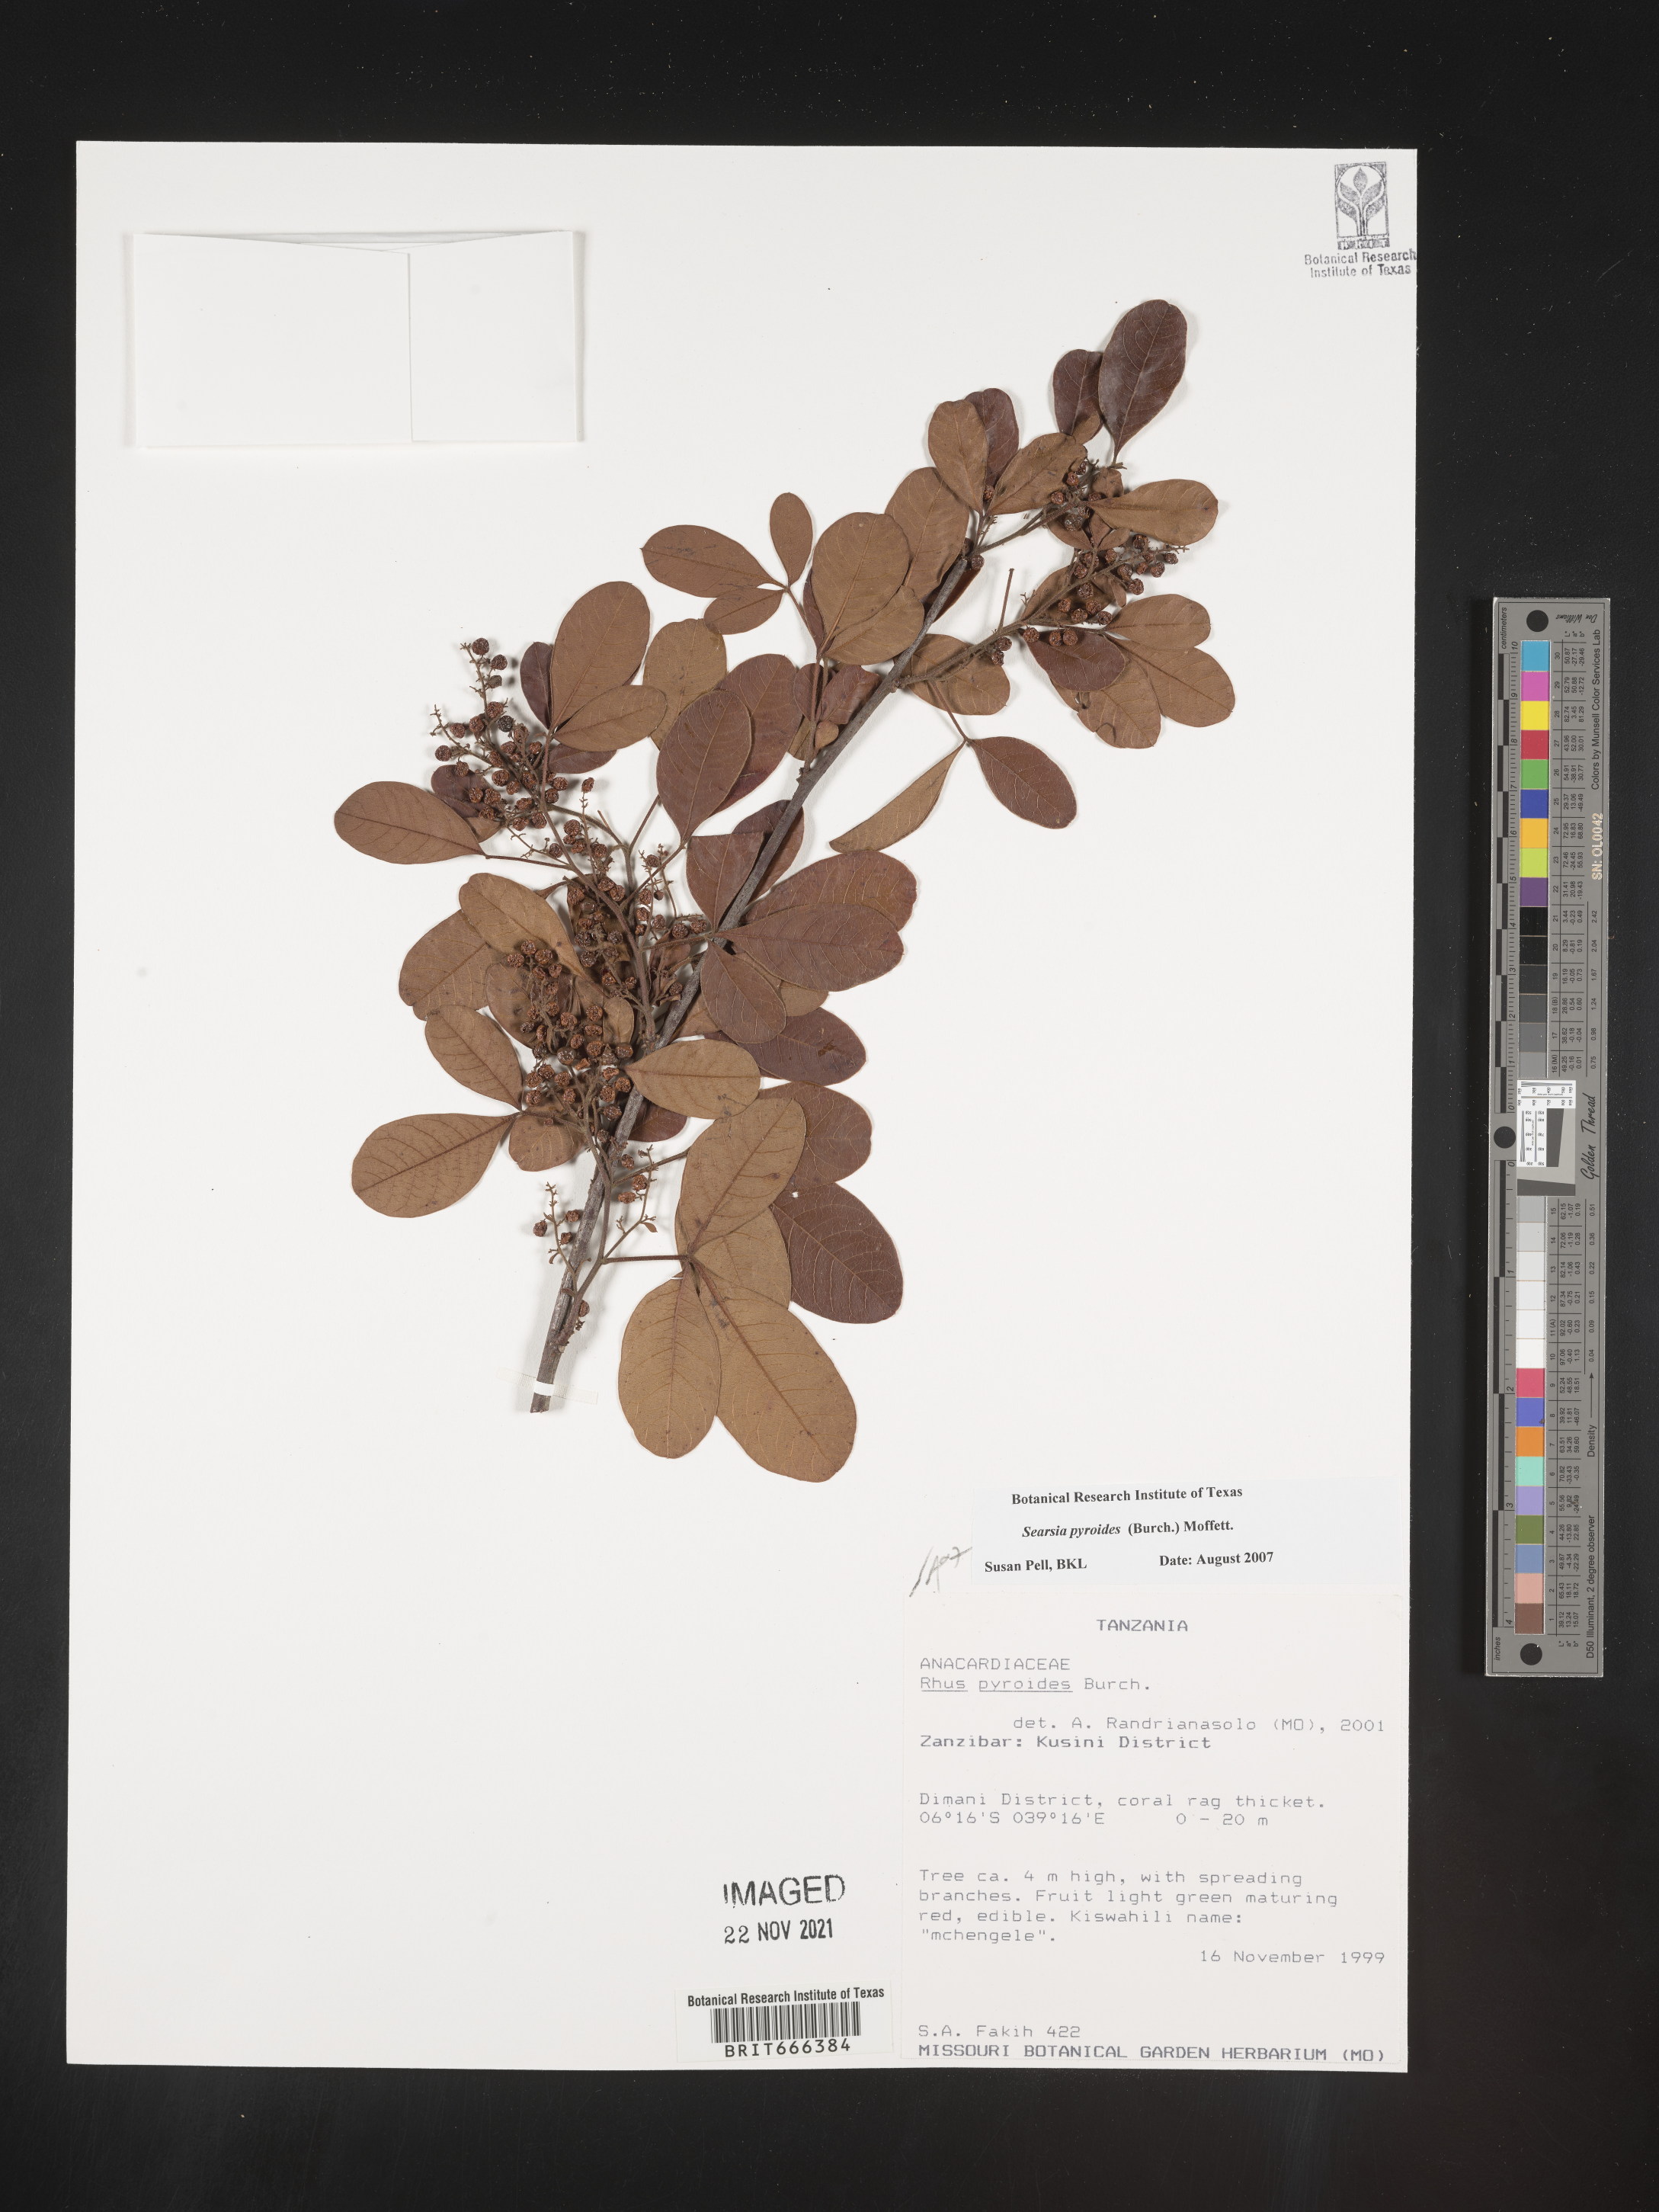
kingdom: Plantae
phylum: Tracheophyta
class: Magnoliopsida
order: Sapindales
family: Anacardiaceae
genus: Searsia
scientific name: Searsia pyroides
